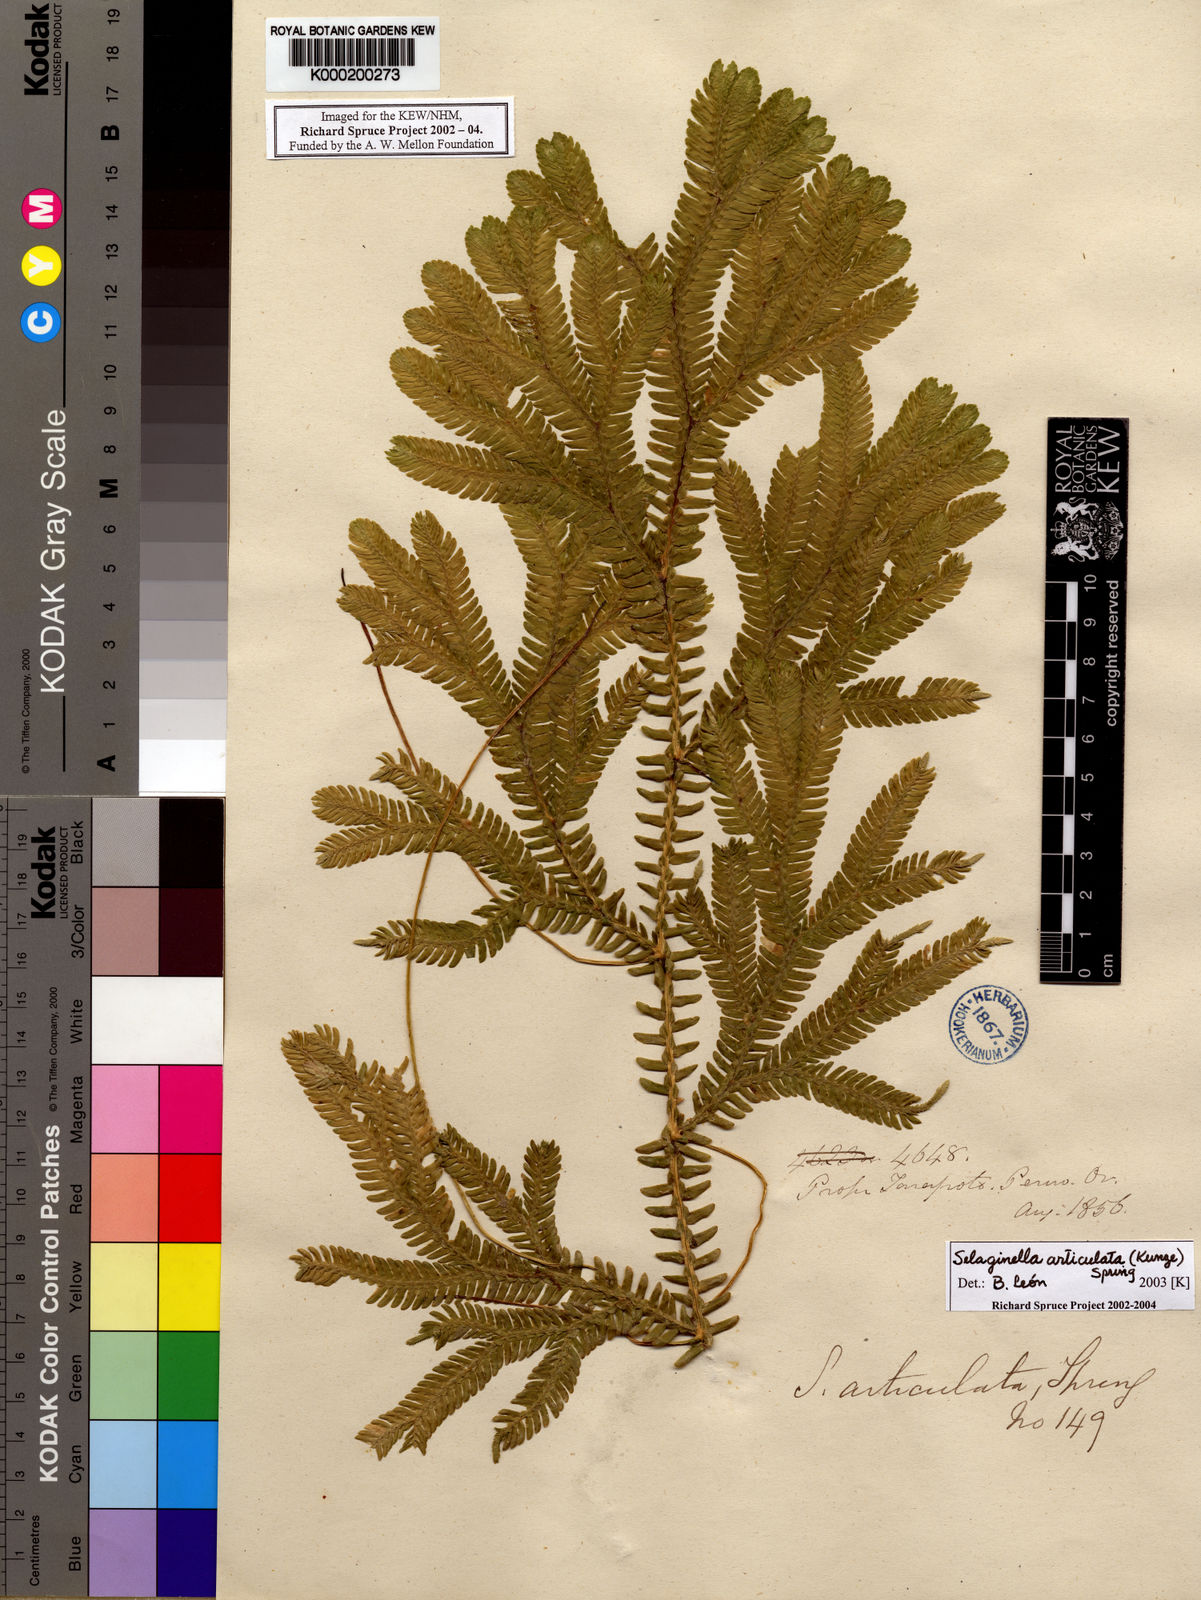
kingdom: Plantae
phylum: Tracheophyta
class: Lycopodiopsida
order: Selaginellales
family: Selaginellaceae
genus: Selaginella
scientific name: Selaginella articulata
